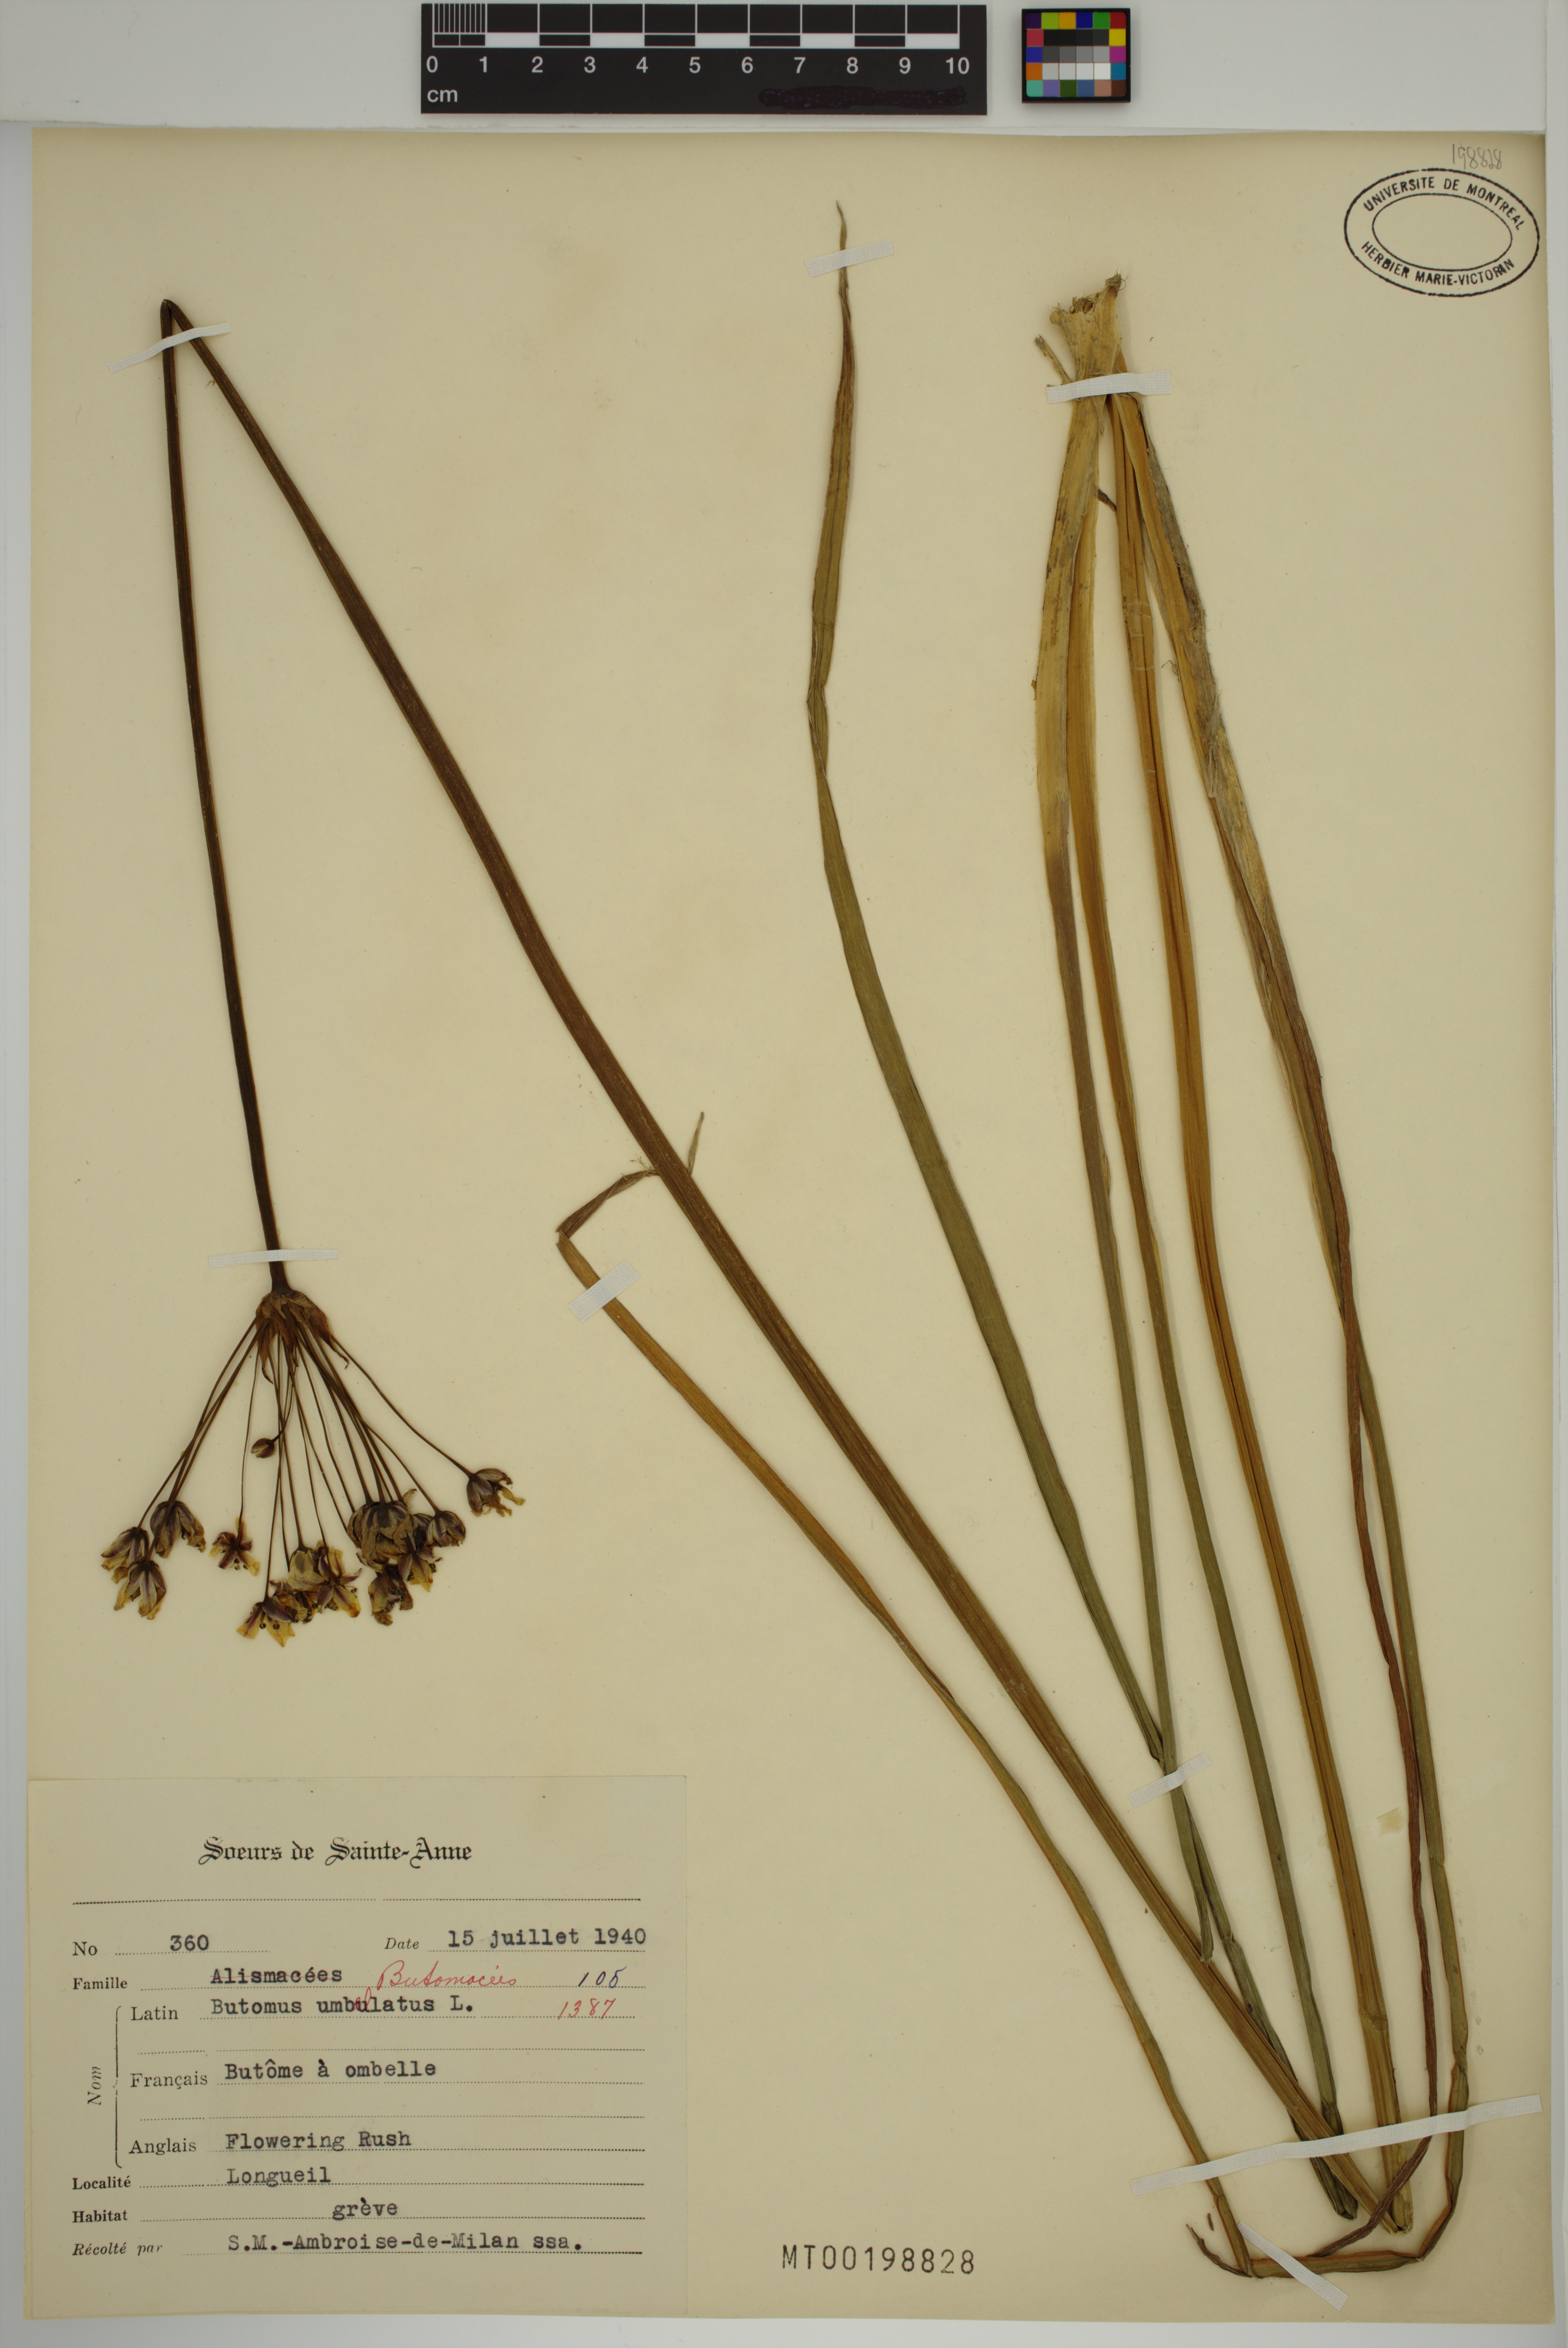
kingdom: Plantae
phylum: Tracheophyta
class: Liliopsida
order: Alismatales
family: Butomaceae
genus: Butomus
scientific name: Butomus umbellatus
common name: Flowering-rush
